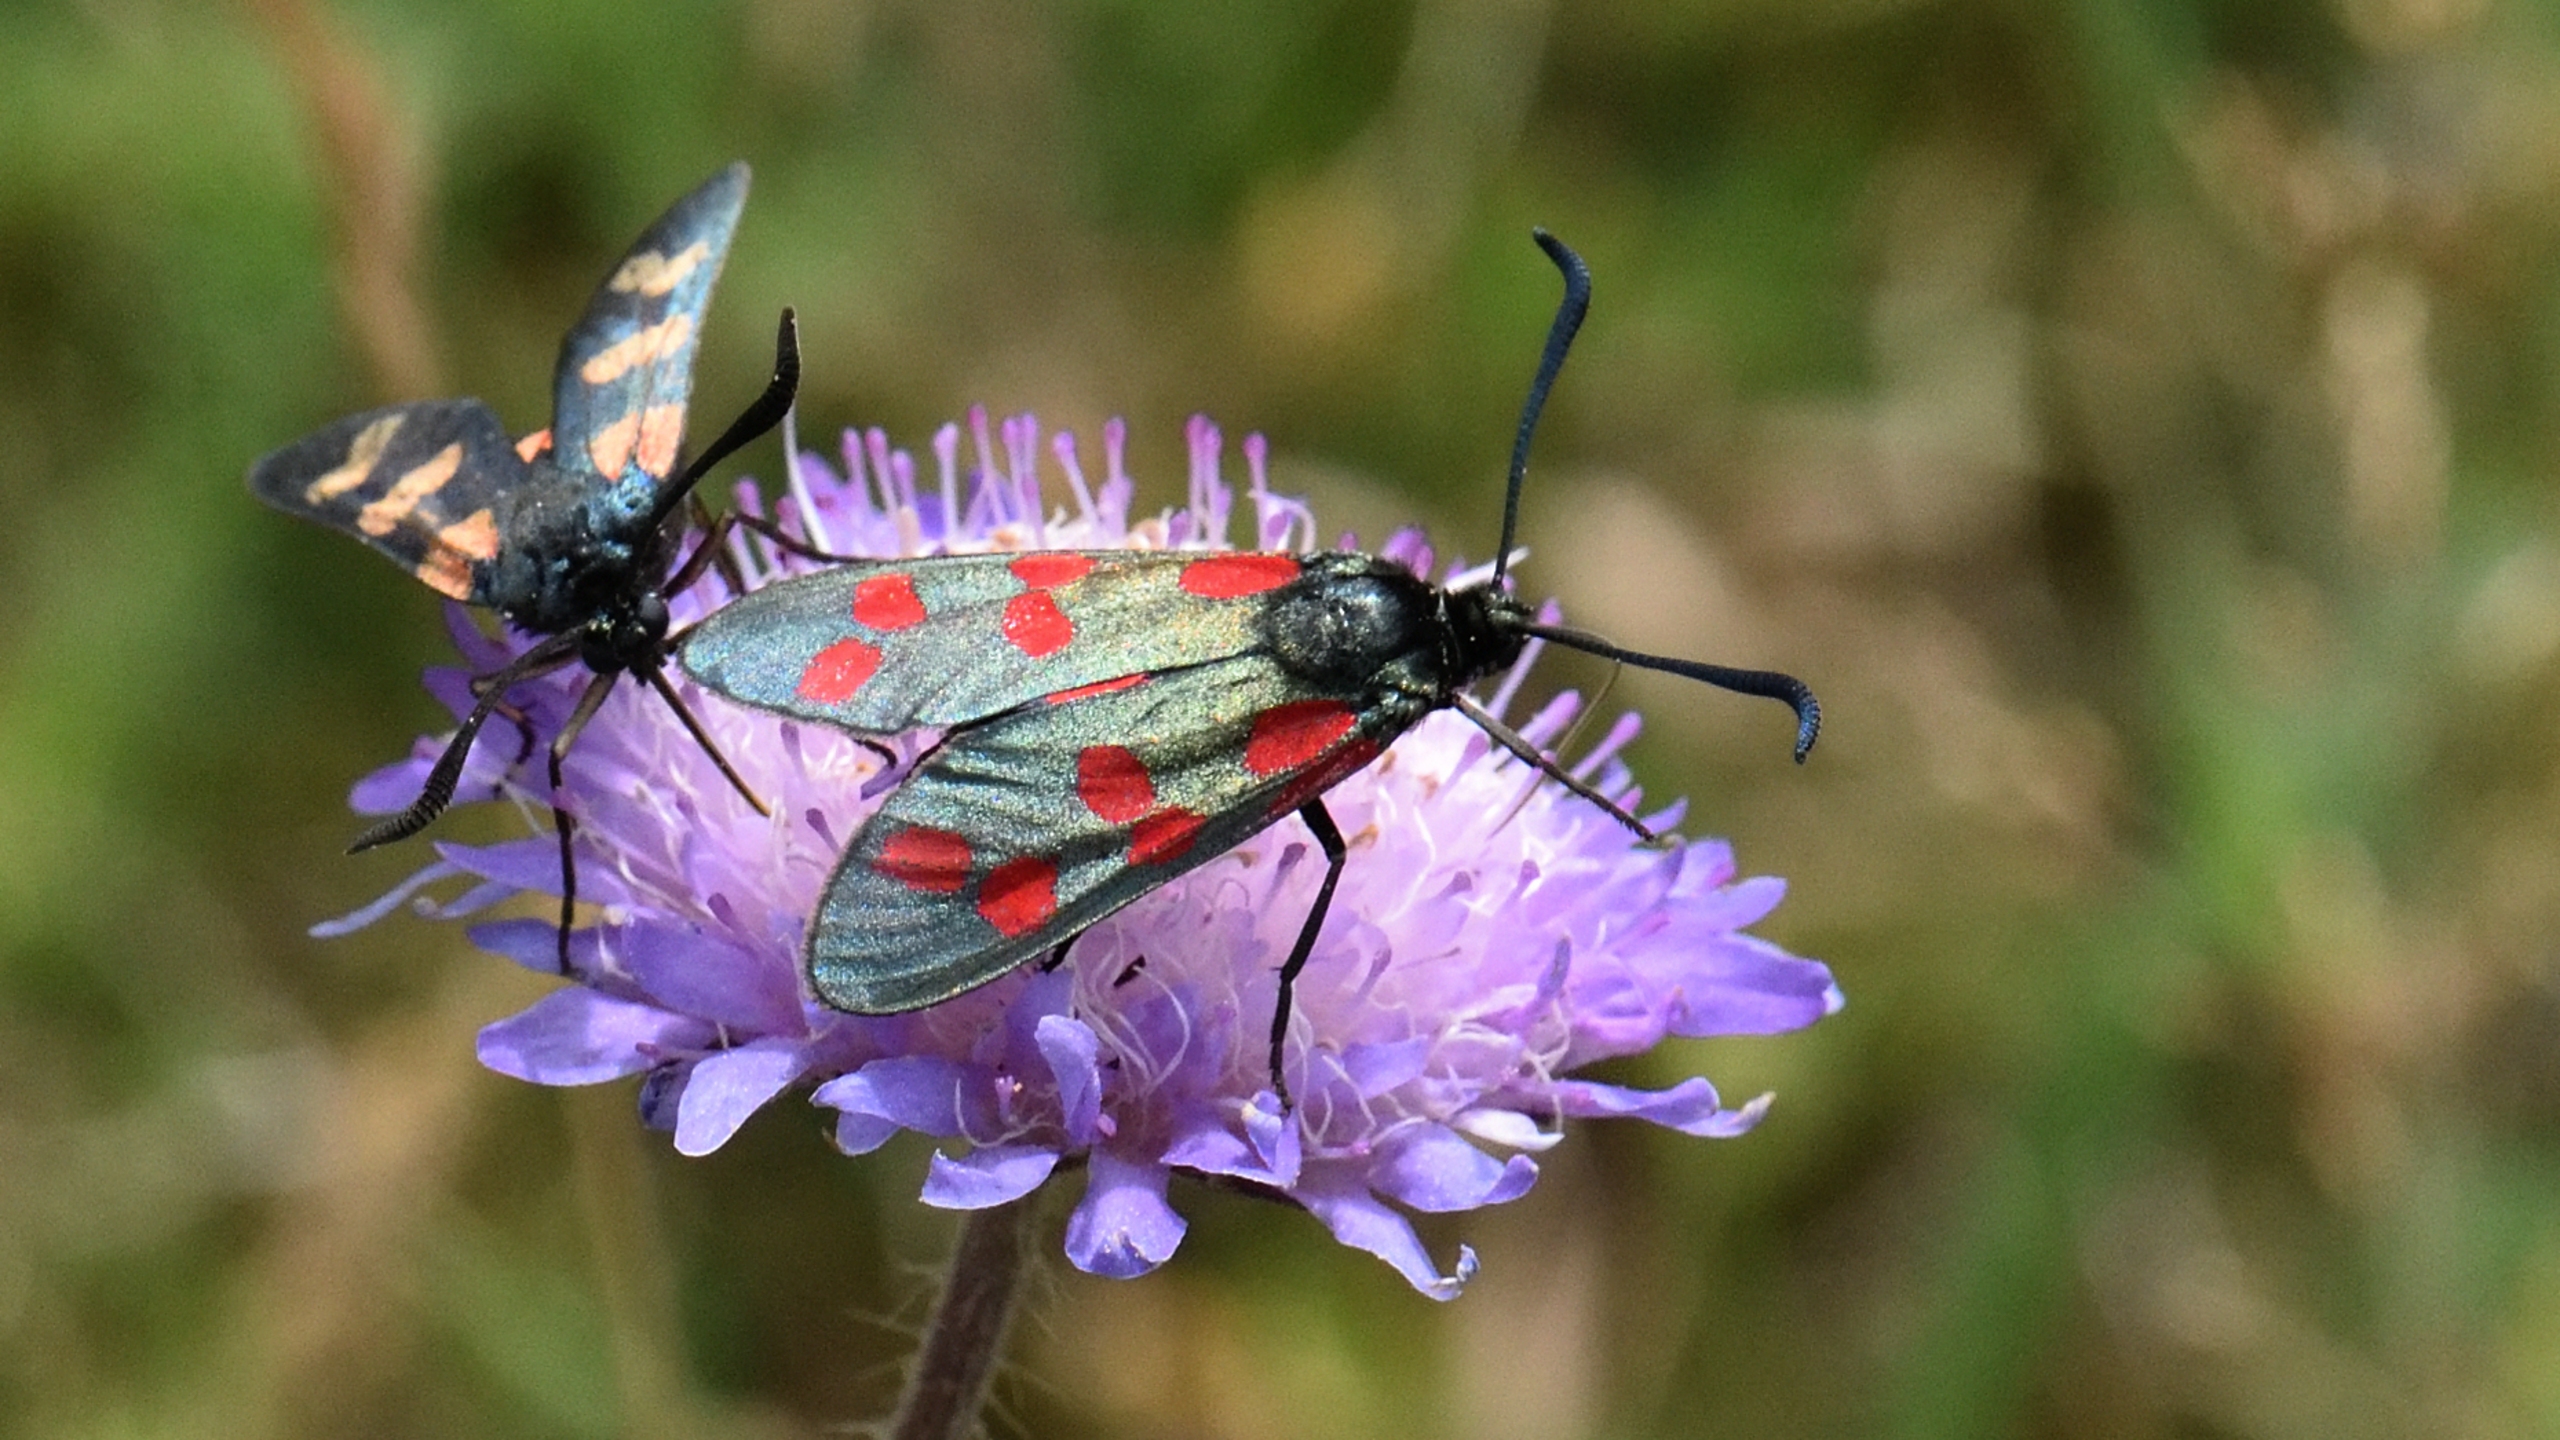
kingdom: Animalia
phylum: Arthropoda
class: Insecta
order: Lepidoptera
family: Zygaenidae
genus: Zygaena
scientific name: Zygaena filipendulae
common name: Seksplettet køllesværmer
